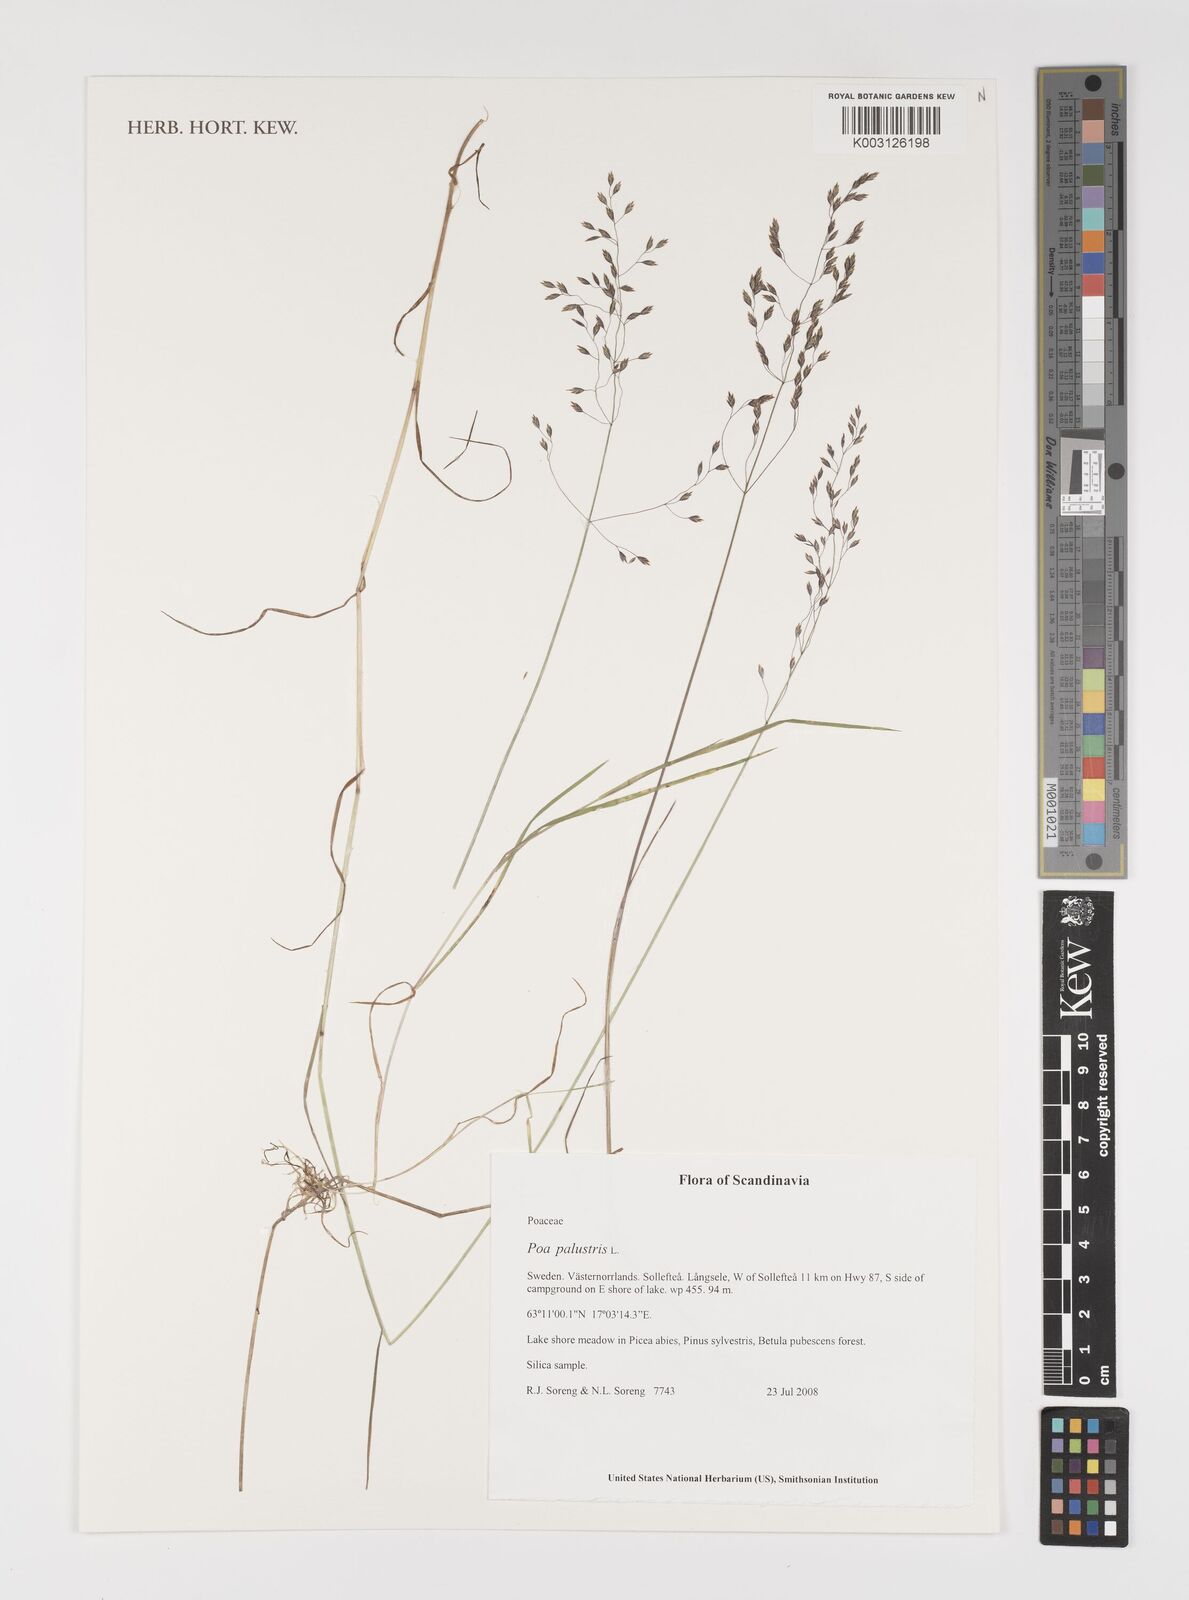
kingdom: Plantae
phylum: Tracheophyta
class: Liliopsida
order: Poales
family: Poaceae
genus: Poa
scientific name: Poa palustris
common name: Swamp meadow-grass
